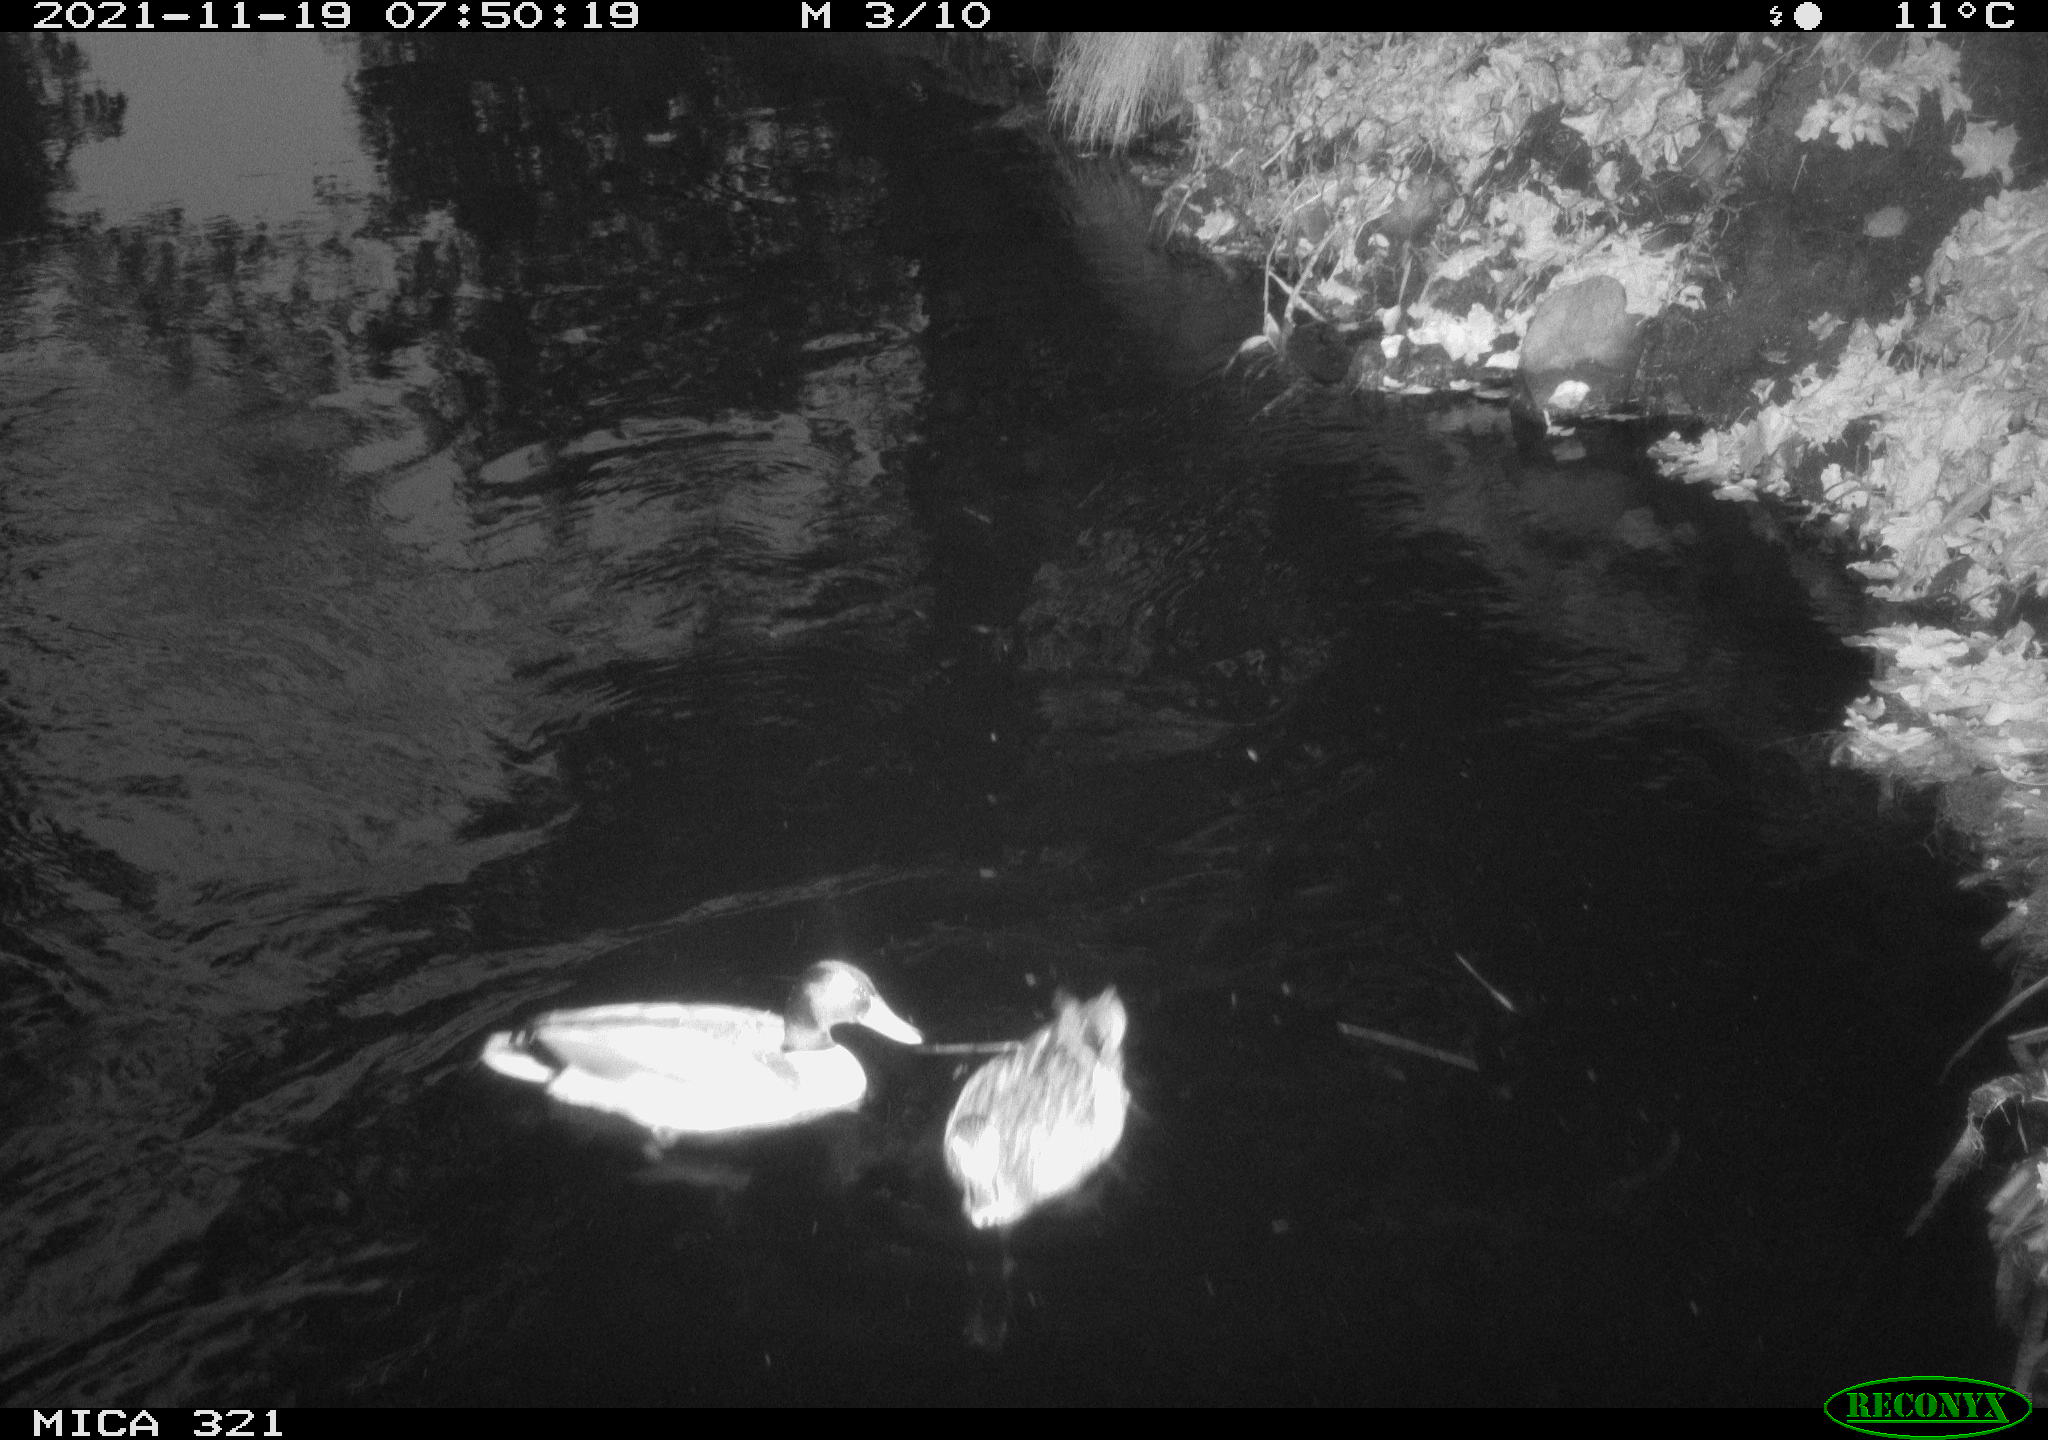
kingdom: Animalia
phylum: Chordata
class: Aves
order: Anseriformes
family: Anatidae
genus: Anas
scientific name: Anas platyrhynchos
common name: Mallard
